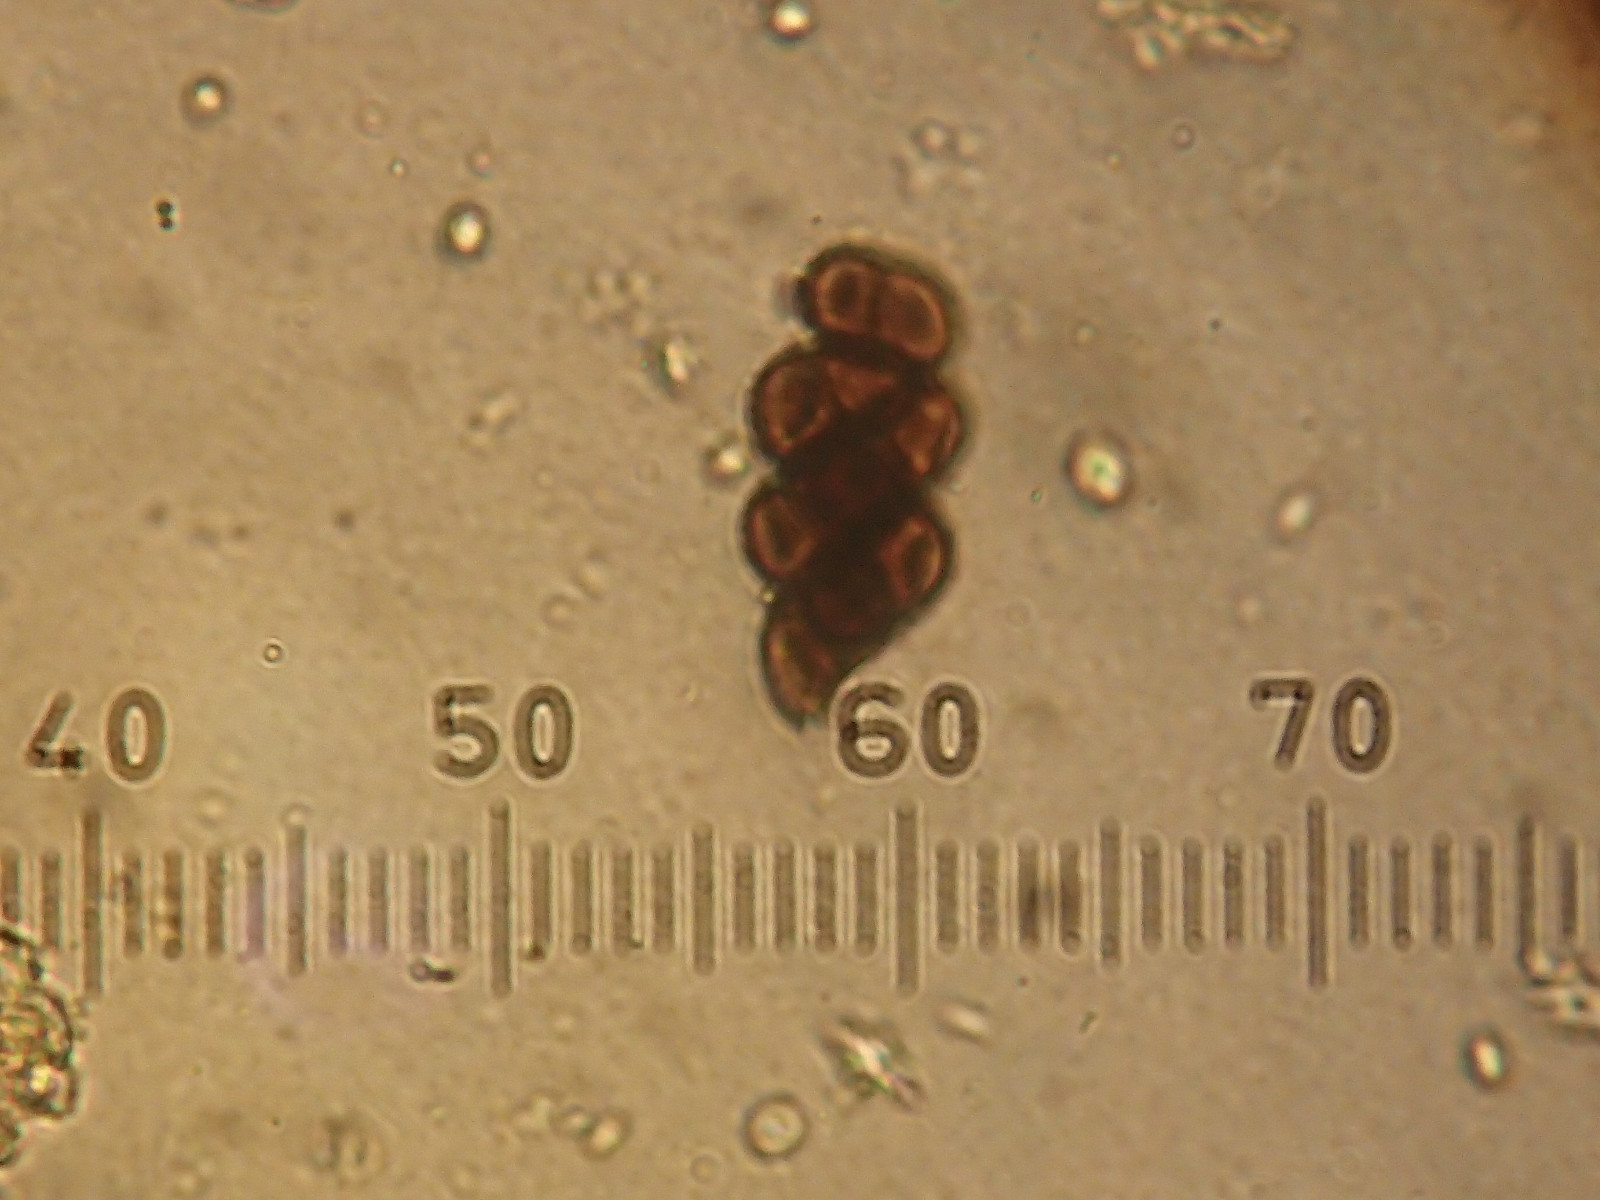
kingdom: Fungi
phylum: Ascomycota
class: Lecanoromycetes
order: Caliciales
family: Physciaceae
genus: Rinodina
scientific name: Rinodina oleae
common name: kyst-knaplav
